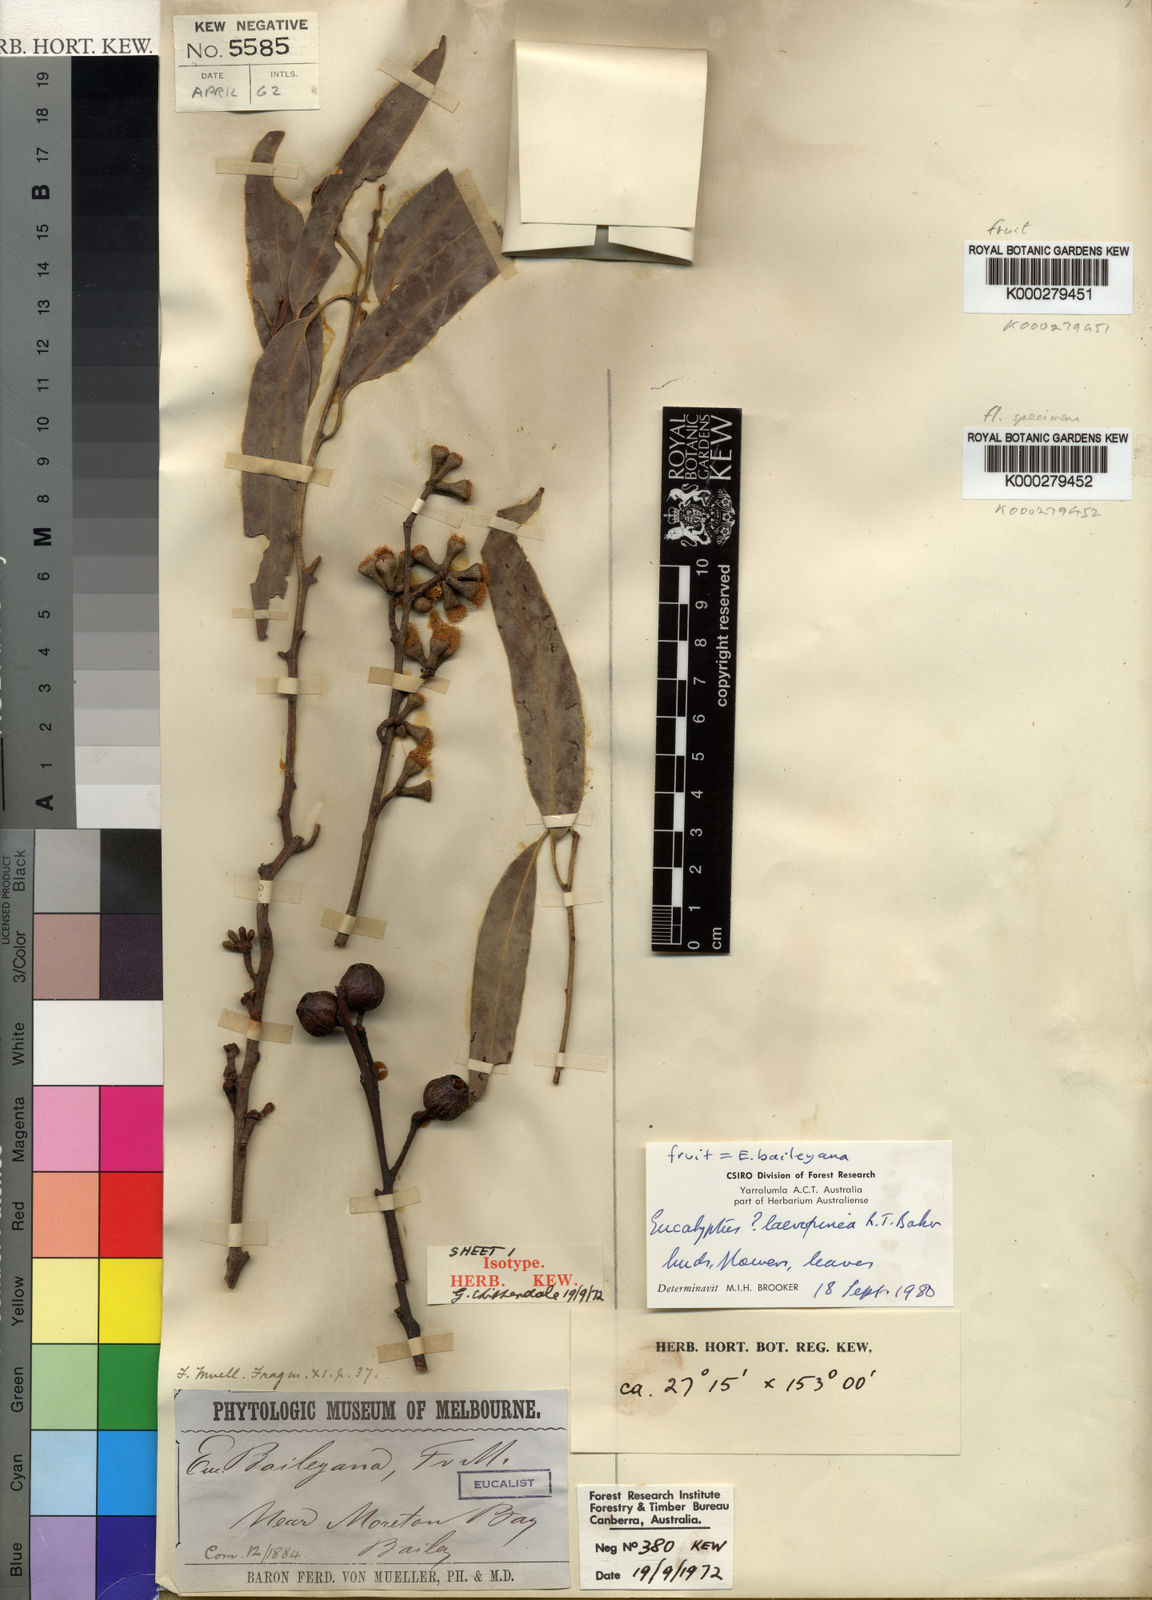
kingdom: Plantae
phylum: Tracheophyta
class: Magnoliopsida
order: Myrtales
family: Myrtaceae
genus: Eucalyptus
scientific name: Eucalyptus baileyana
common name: Bailey's-stringybark
